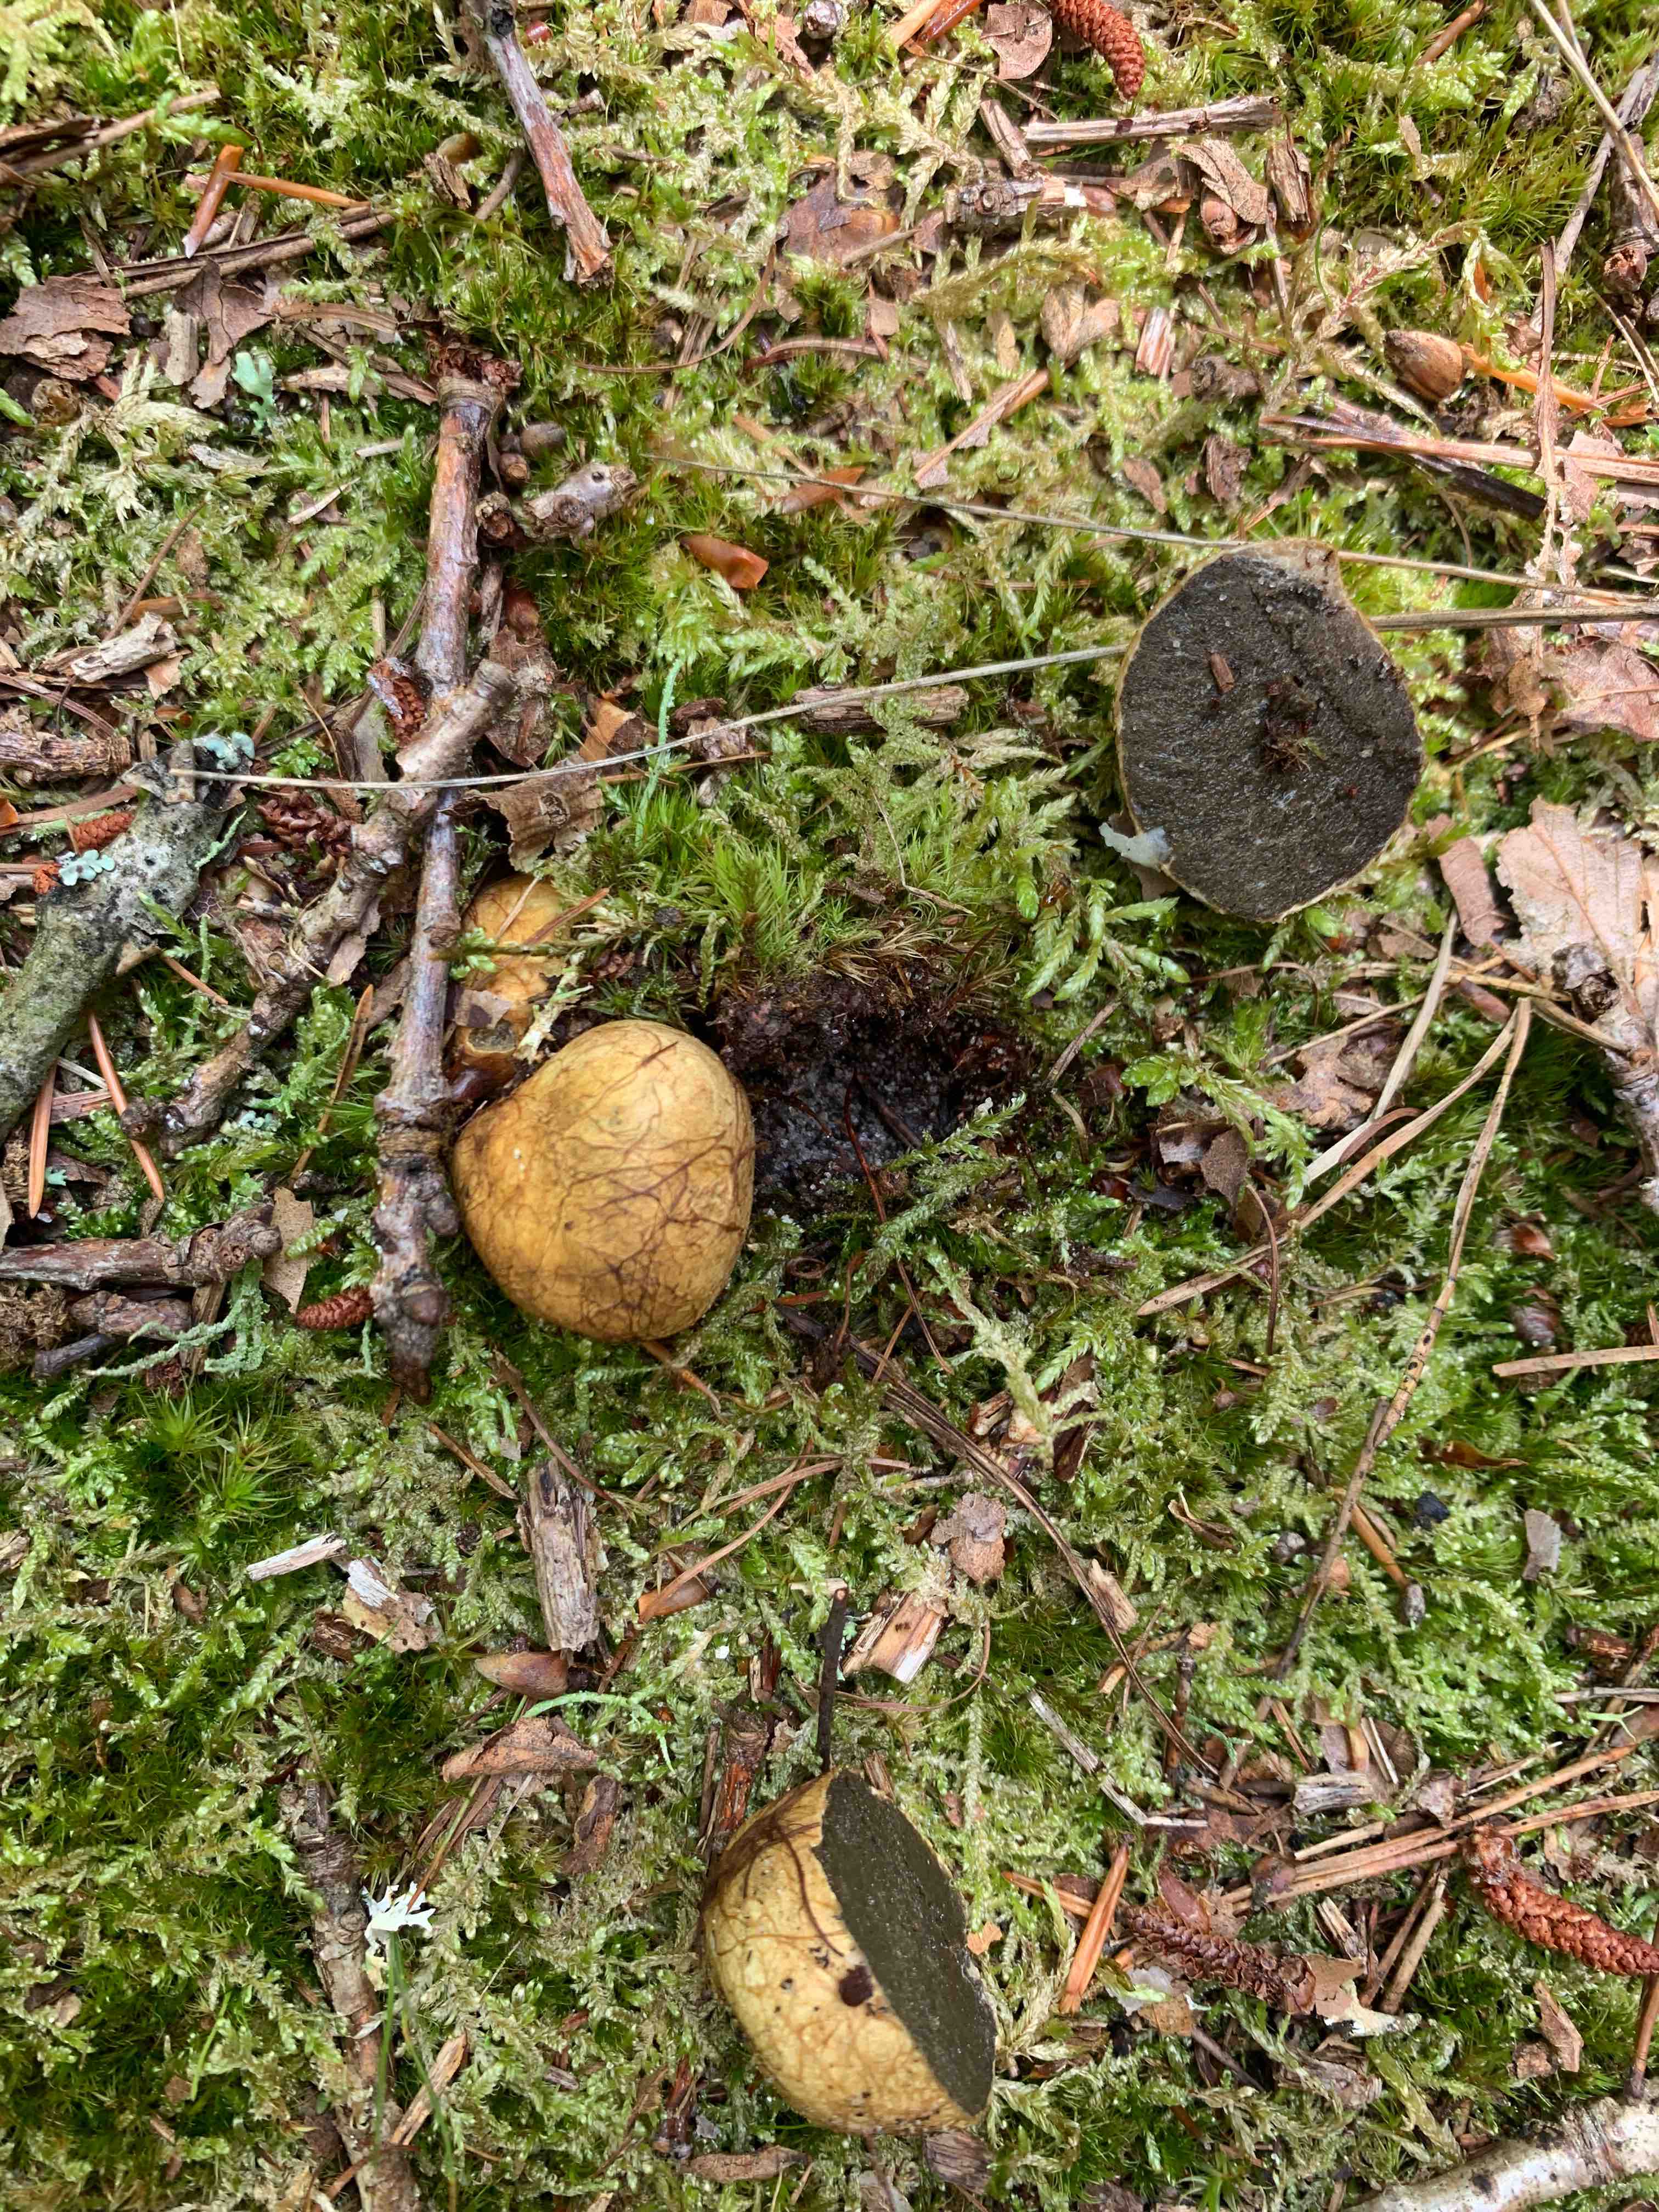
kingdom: Fungi
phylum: Basidiomycota
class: Agaricomycetes
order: Boletales
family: Rhizopogonaceae
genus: Rhizopogon
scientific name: Rhizopogon obtextus
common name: gul skægtrøffel
